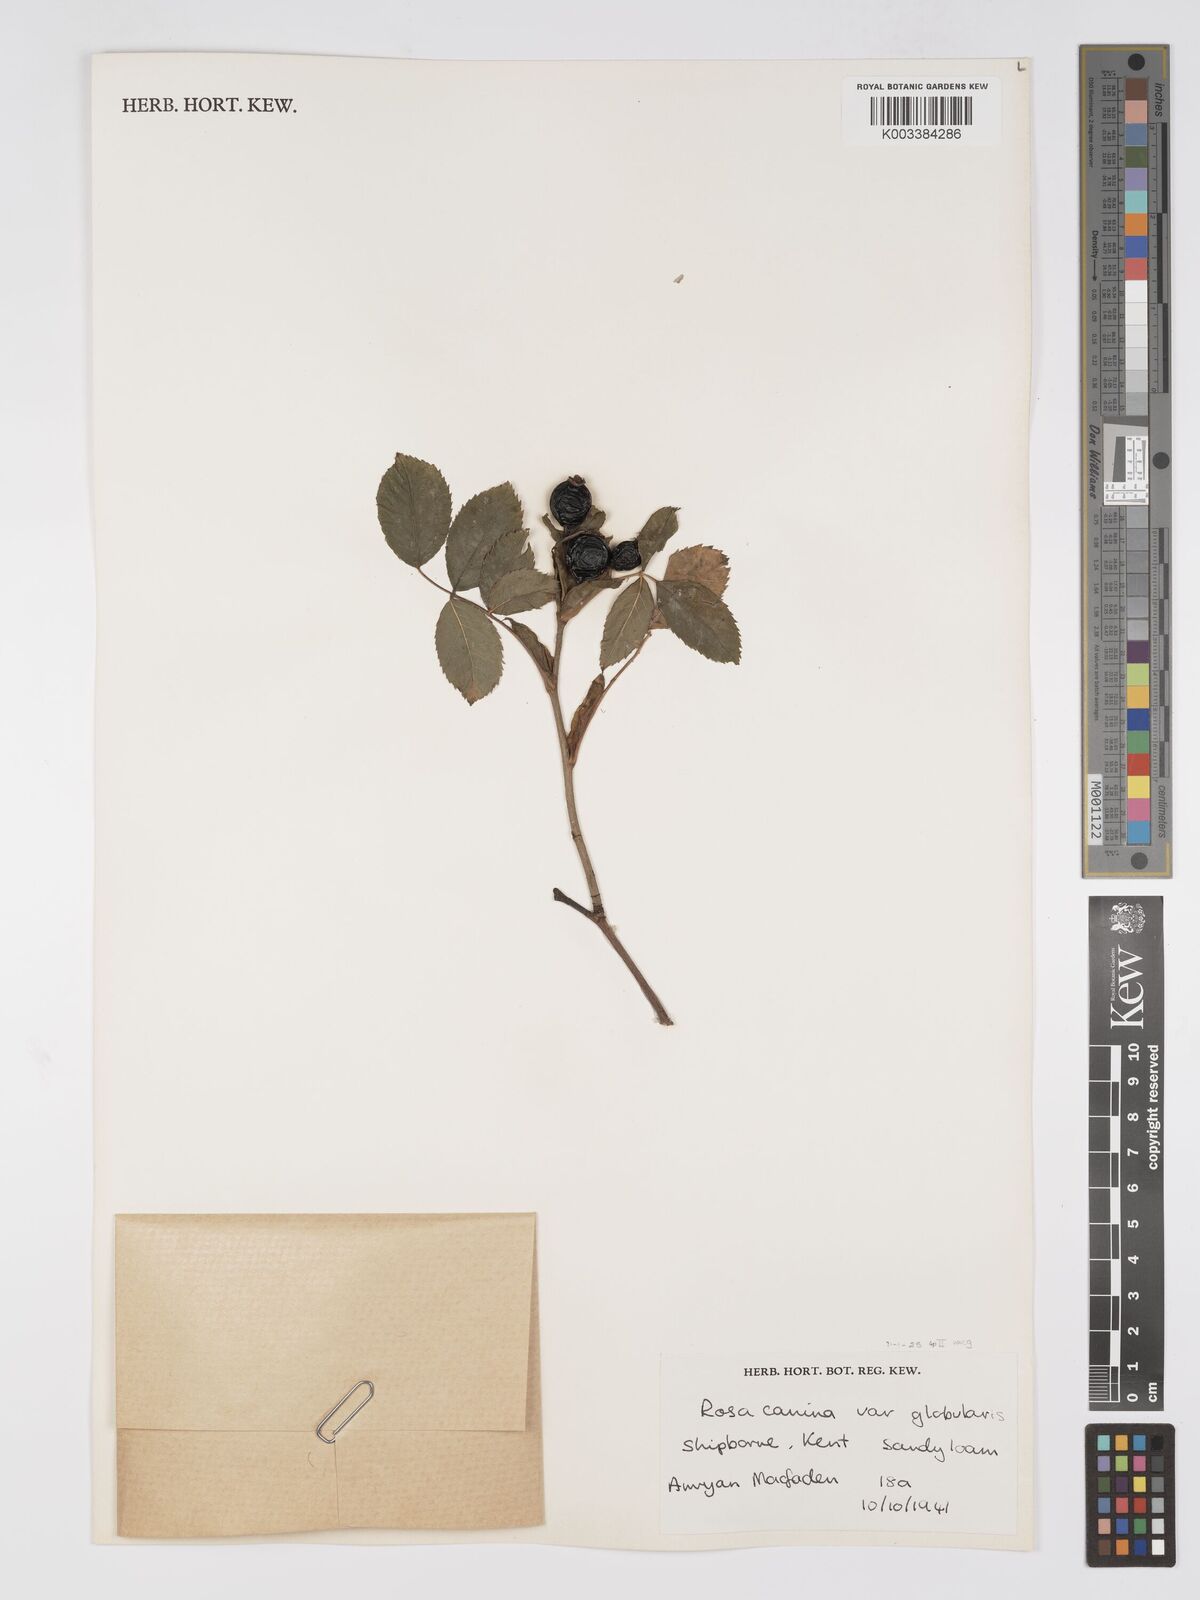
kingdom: Plantae
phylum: Tracheophyta
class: Magnoliopsida
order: Rosales
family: Rosaceae
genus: Rosa
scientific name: Rosa canina
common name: Dog rose
